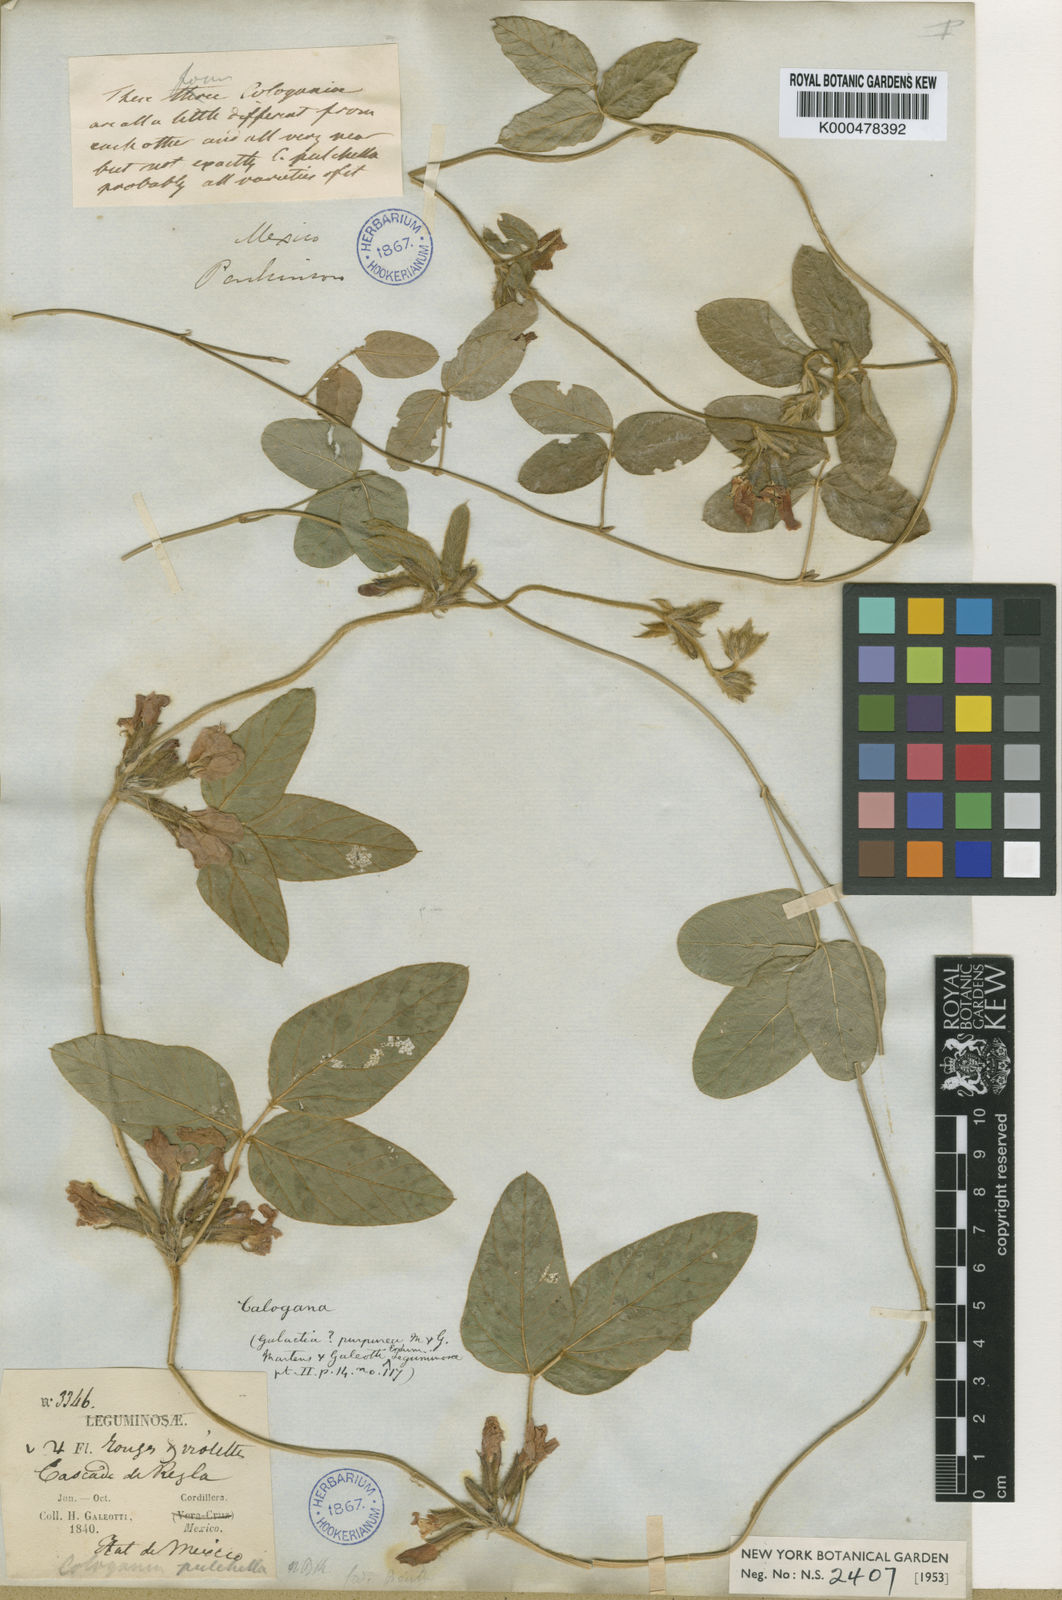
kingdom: Plantae
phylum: Tracheophyta
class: Magnoliopsida
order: Fabales
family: Fabaceae
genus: Cologania
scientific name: Cologania broussonetii
